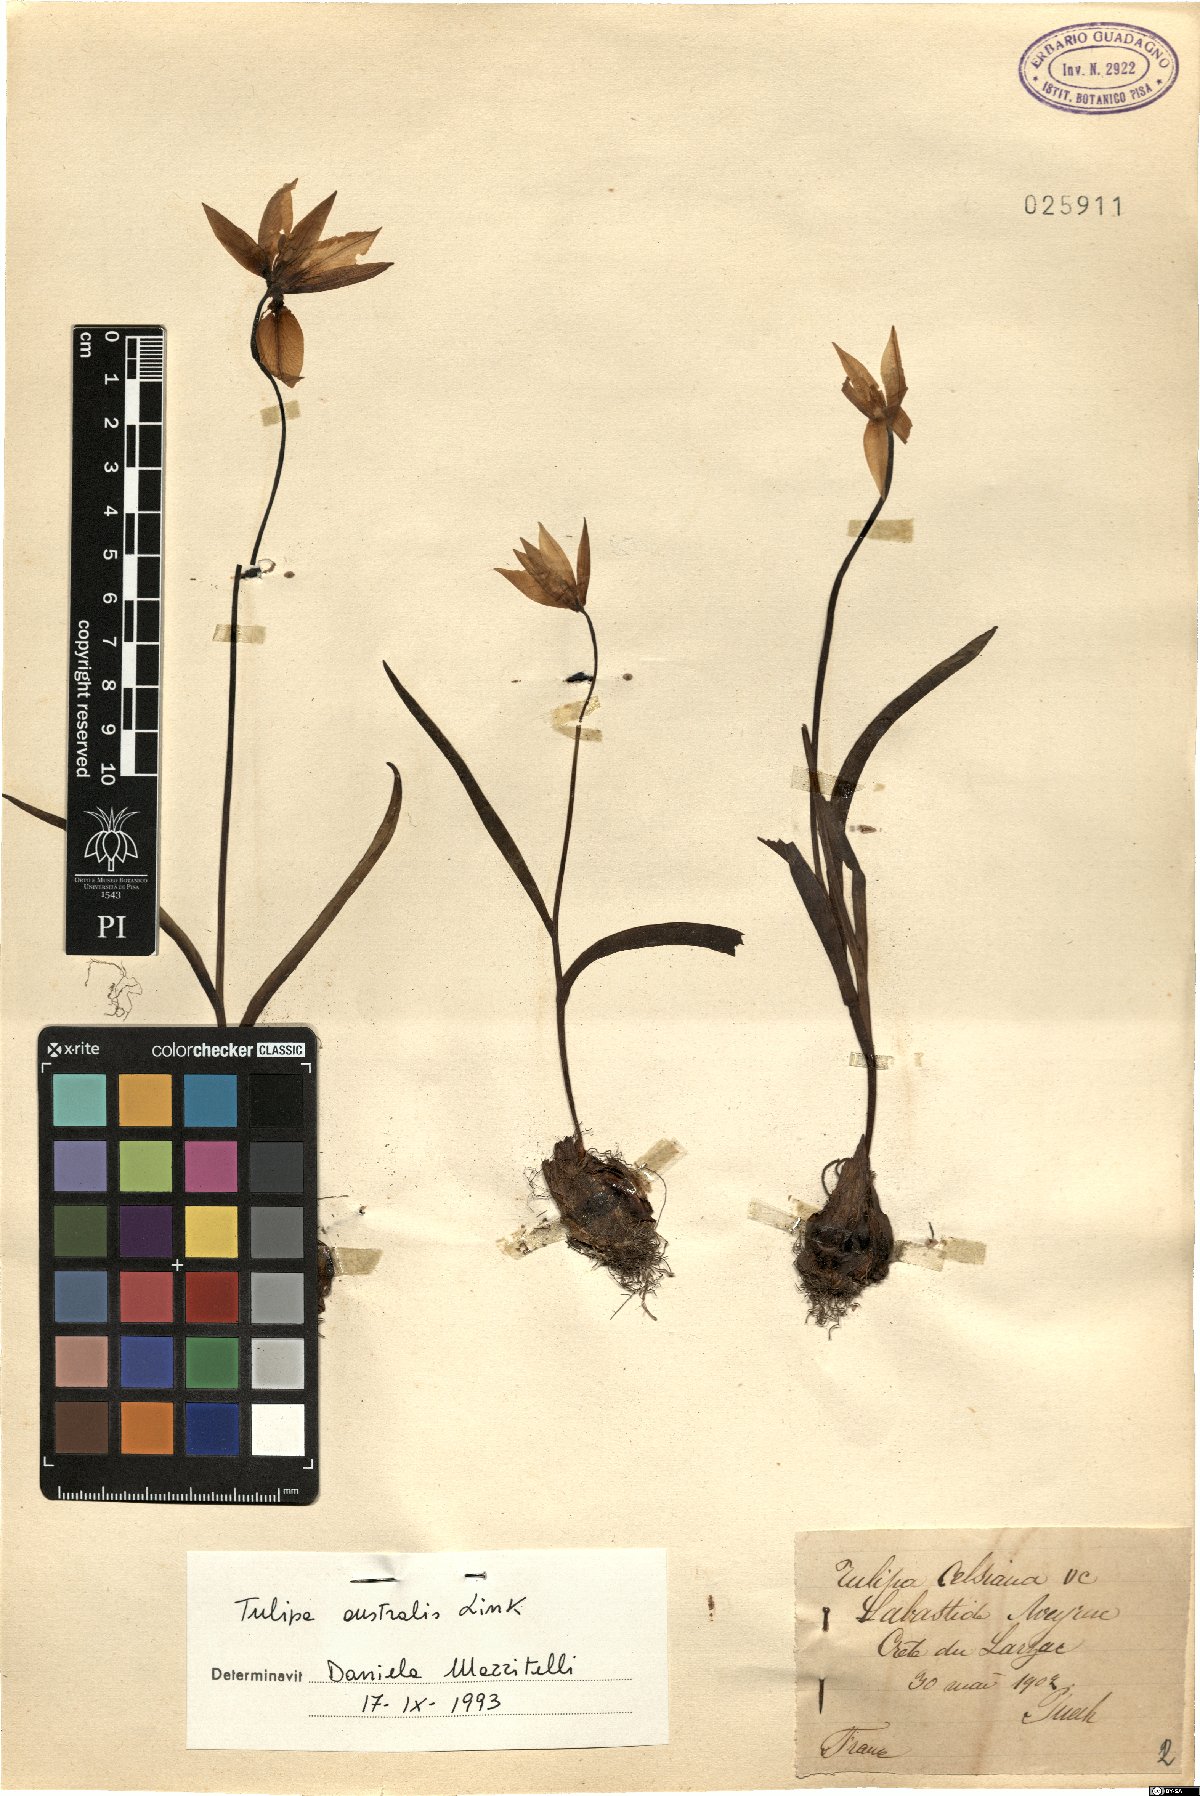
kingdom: Plantae
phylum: Tracheophyta
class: Liliopsida
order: Liliales
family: Liliaceae
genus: Tulipa
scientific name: Tulipa sylvestris
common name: Wild tulip
